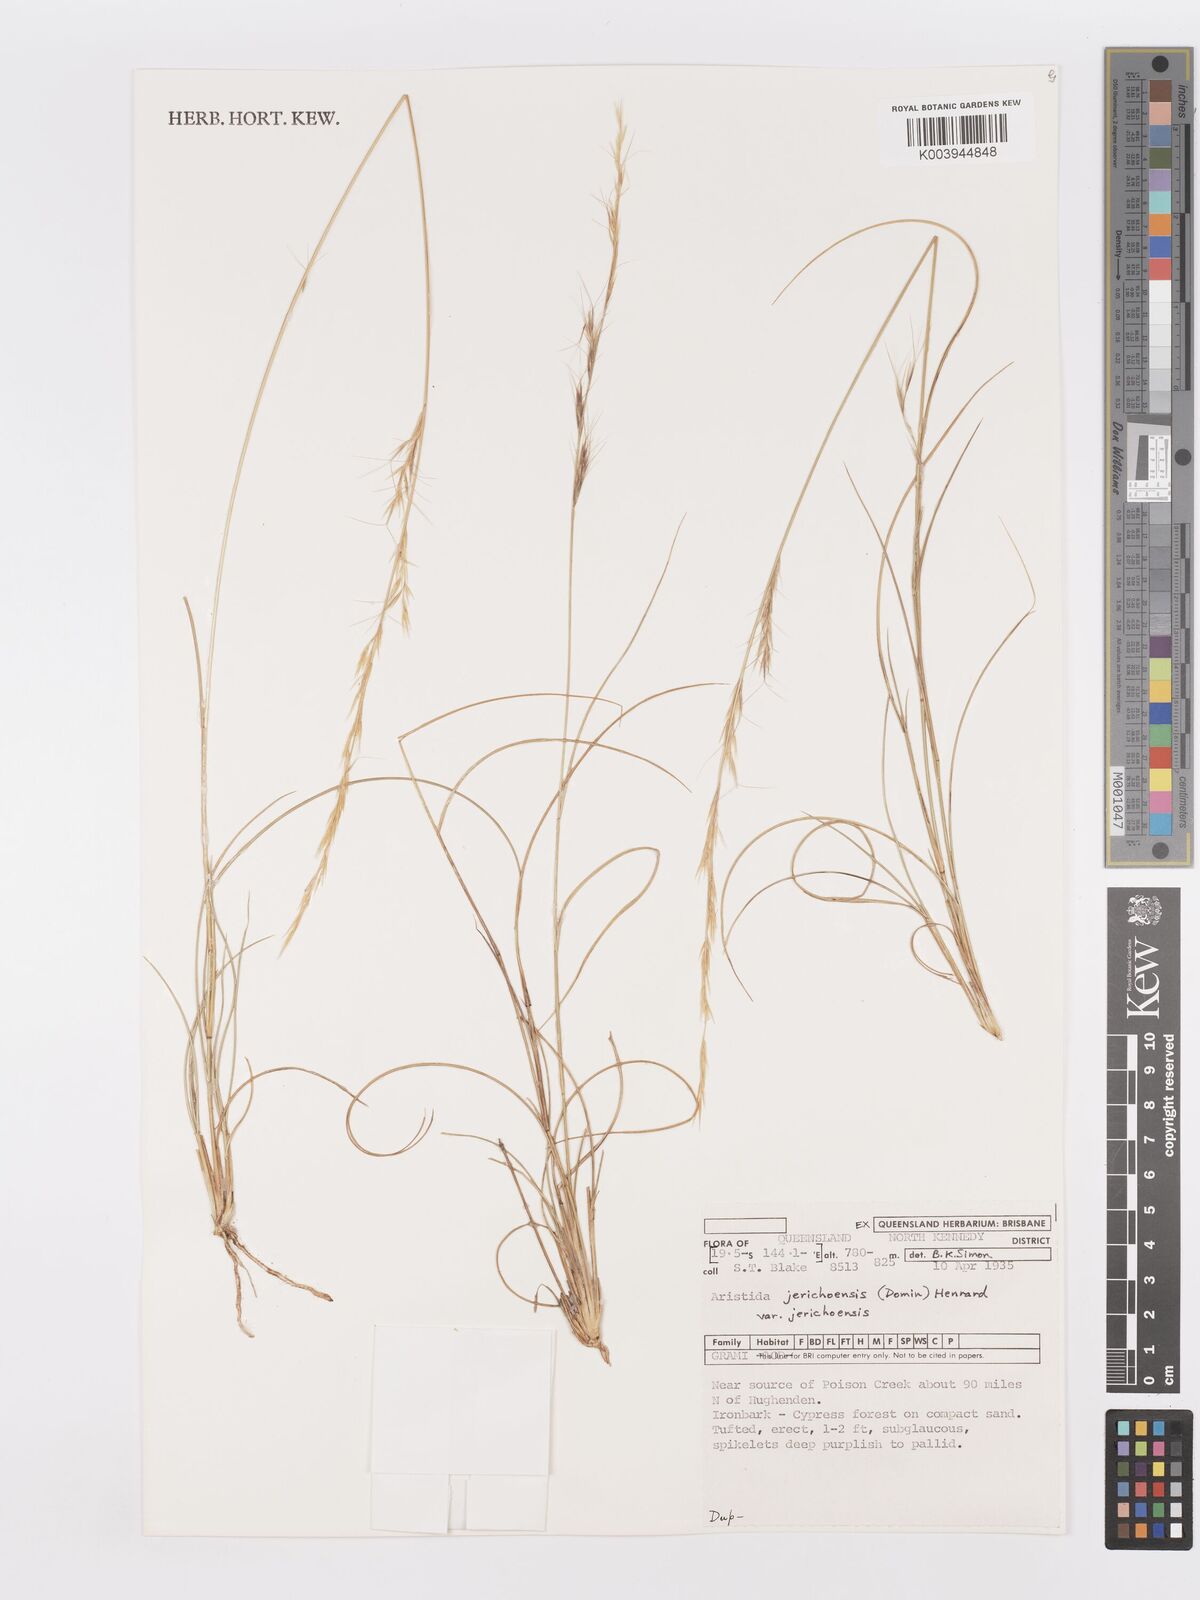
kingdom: Plantae
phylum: Tracheophyta
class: Liliopsida
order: Poales
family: Poaceae
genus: Aristida
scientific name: Aristida jerichoensis
